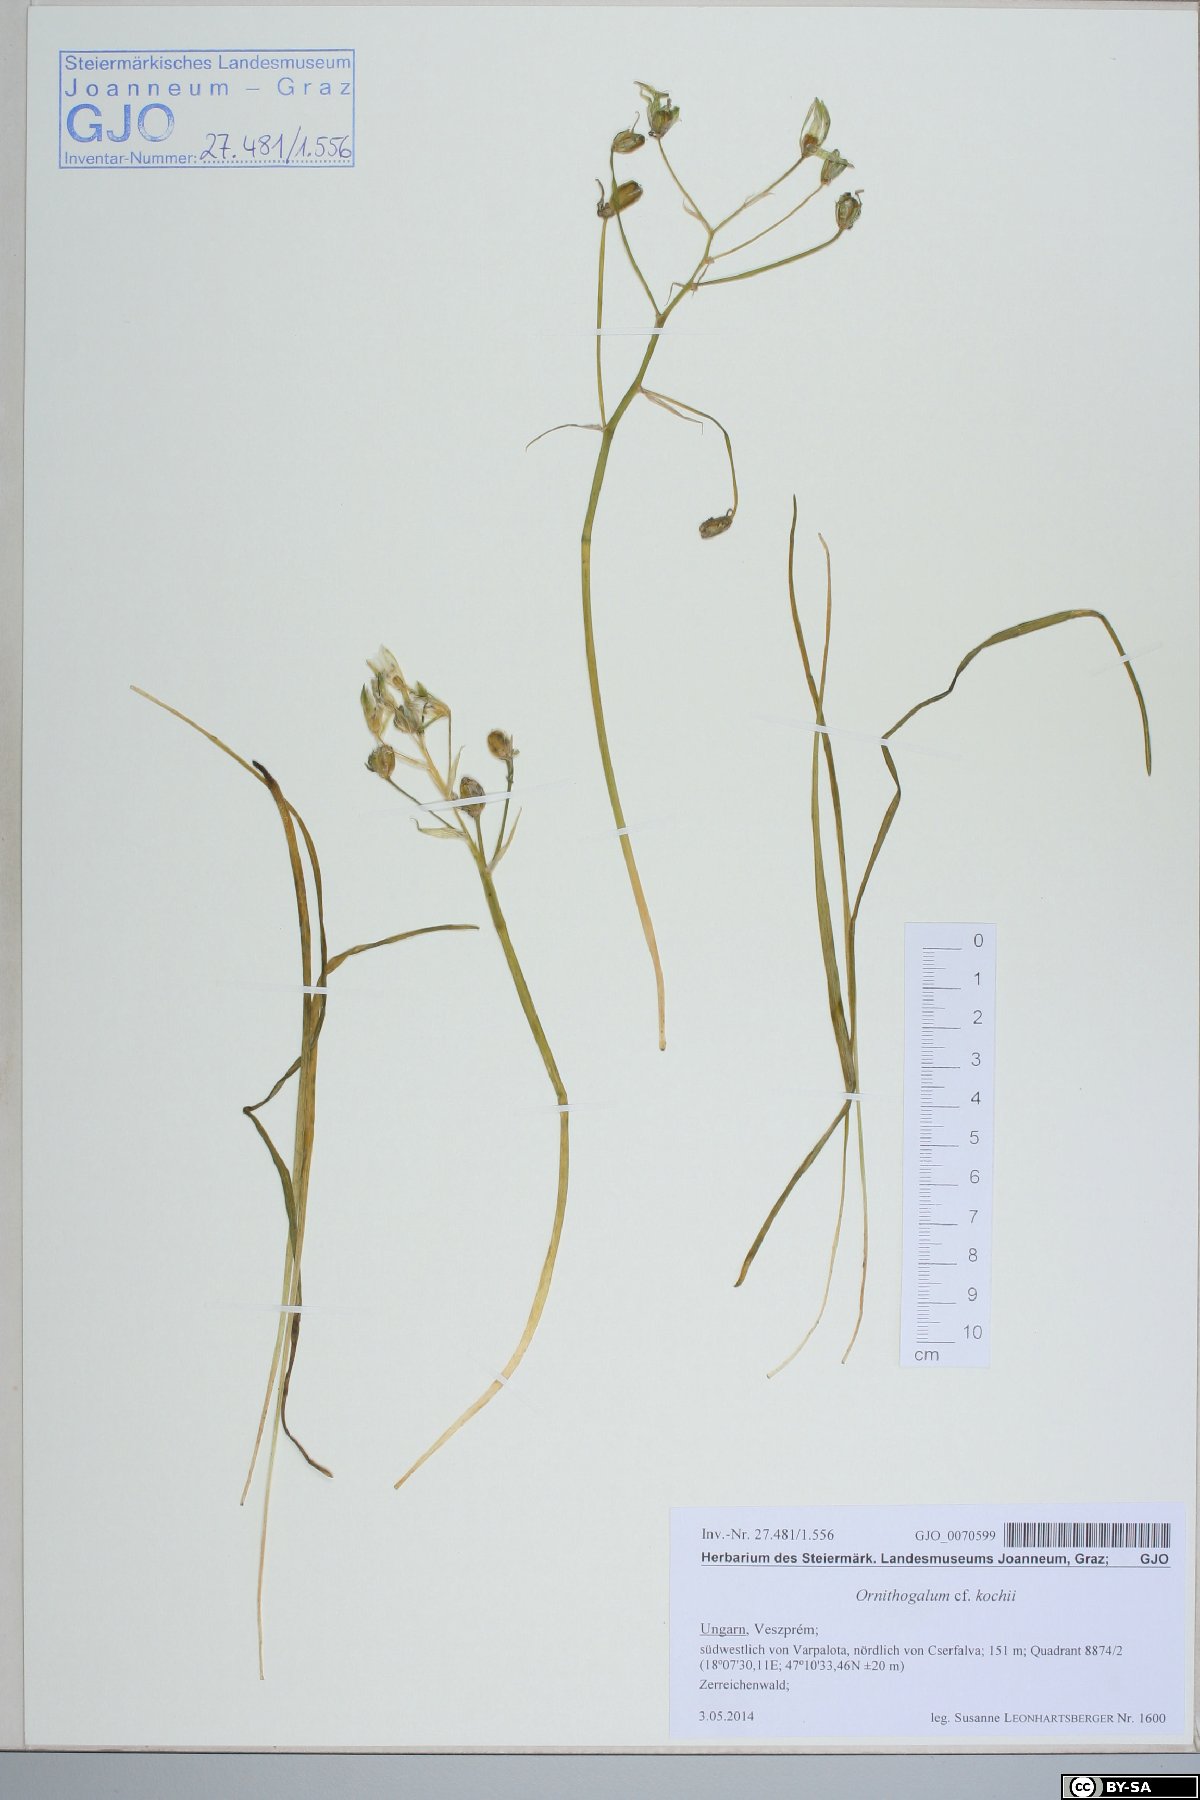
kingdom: Plantae
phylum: Tracheophyta
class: Liliopsida
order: Asparagales
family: Asparagaceae
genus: Ornithogalum
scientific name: Ornithogalum orthophyllum
